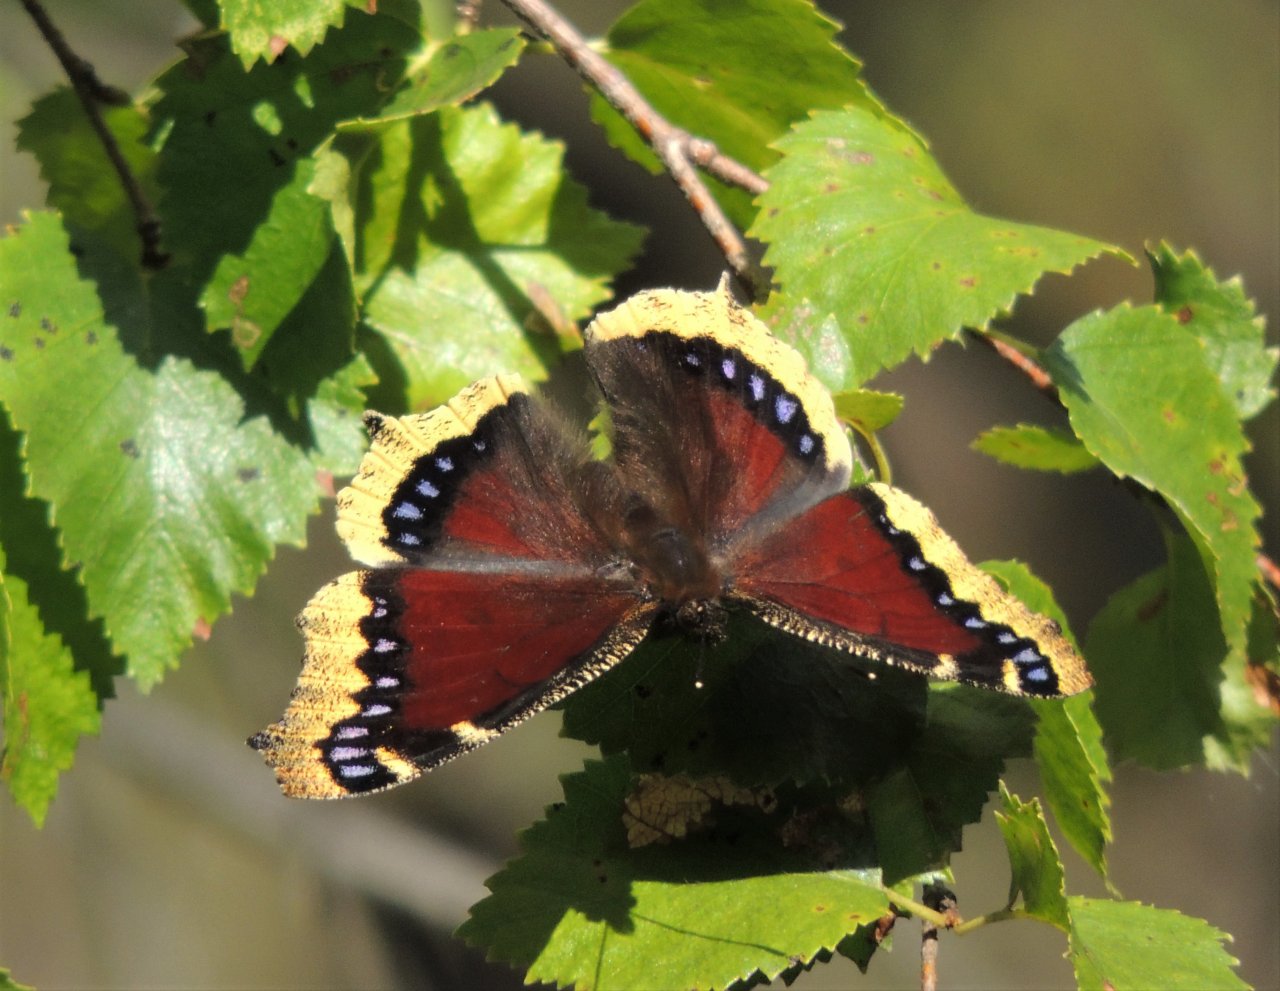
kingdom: Animalia
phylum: Arthropoda
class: Insecta
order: Lepidoptera
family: Nymphalidae
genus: Nymphalis
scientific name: Nymphalis antiopa
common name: Mourning Cloak
